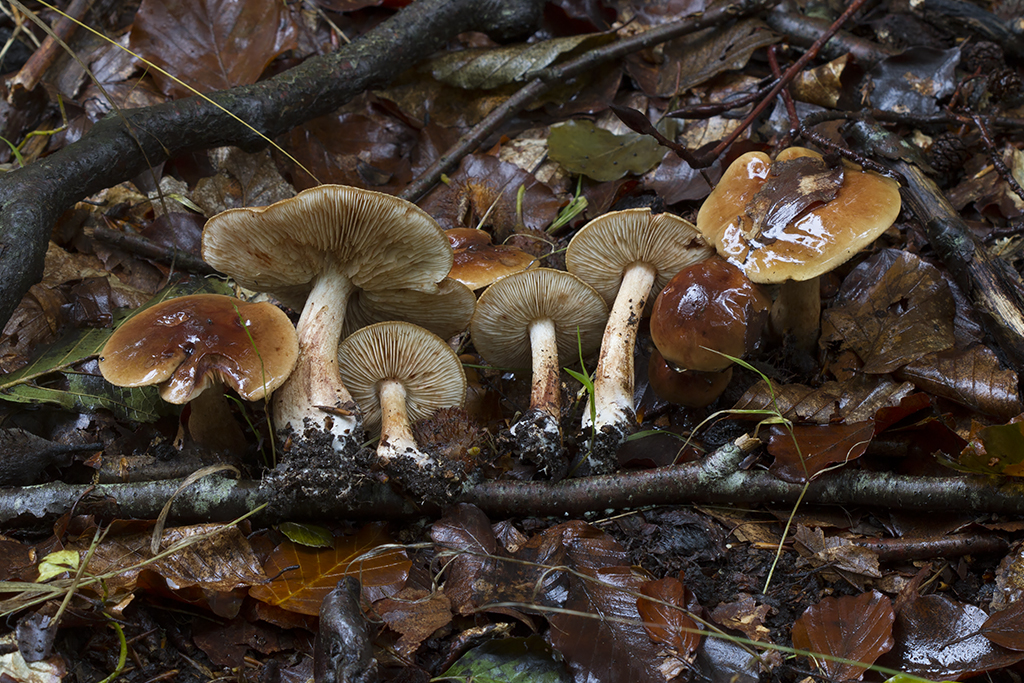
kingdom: Fungi
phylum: Basidiomycota
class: Agaricomycetes
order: Agaricales
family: Tricholomataceae
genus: Tricholoma
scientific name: Tricholoma ustale
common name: sveden ridderhat
